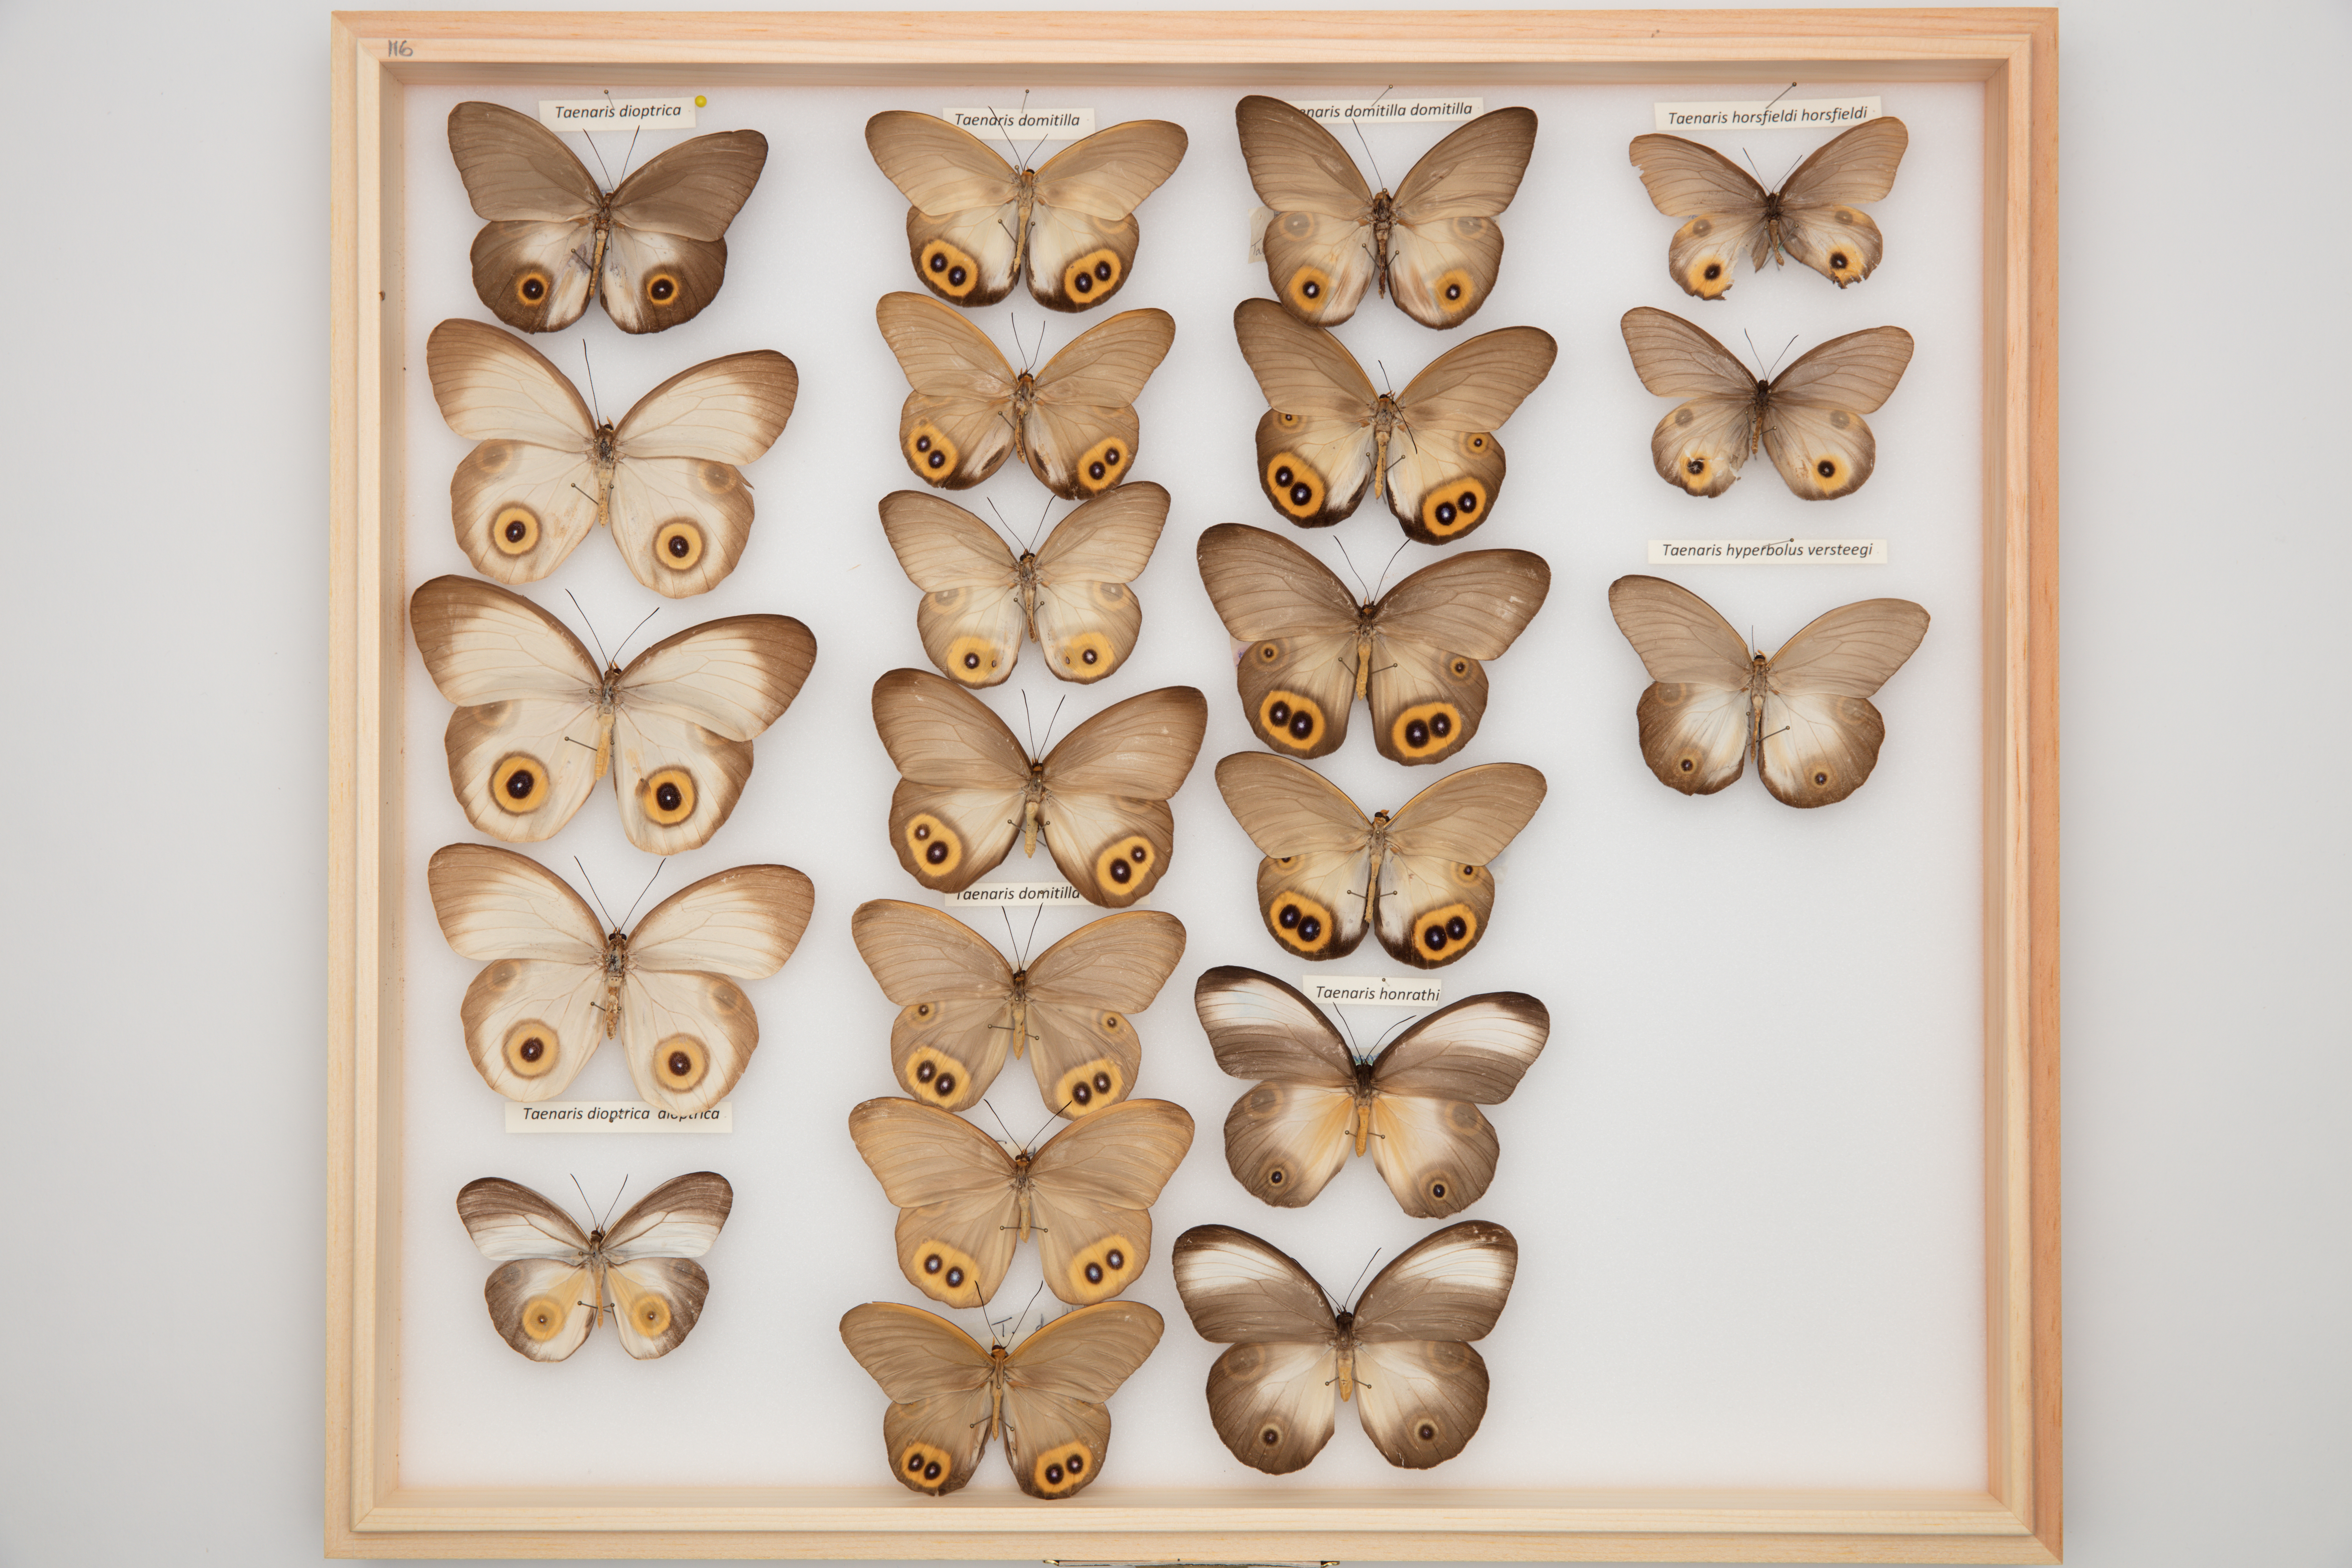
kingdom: Animalia
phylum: Arthropoda
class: Insecta
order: Lepidoptera
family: Nymphalidae
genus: Taenaris
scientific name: Taenaris domitilla
